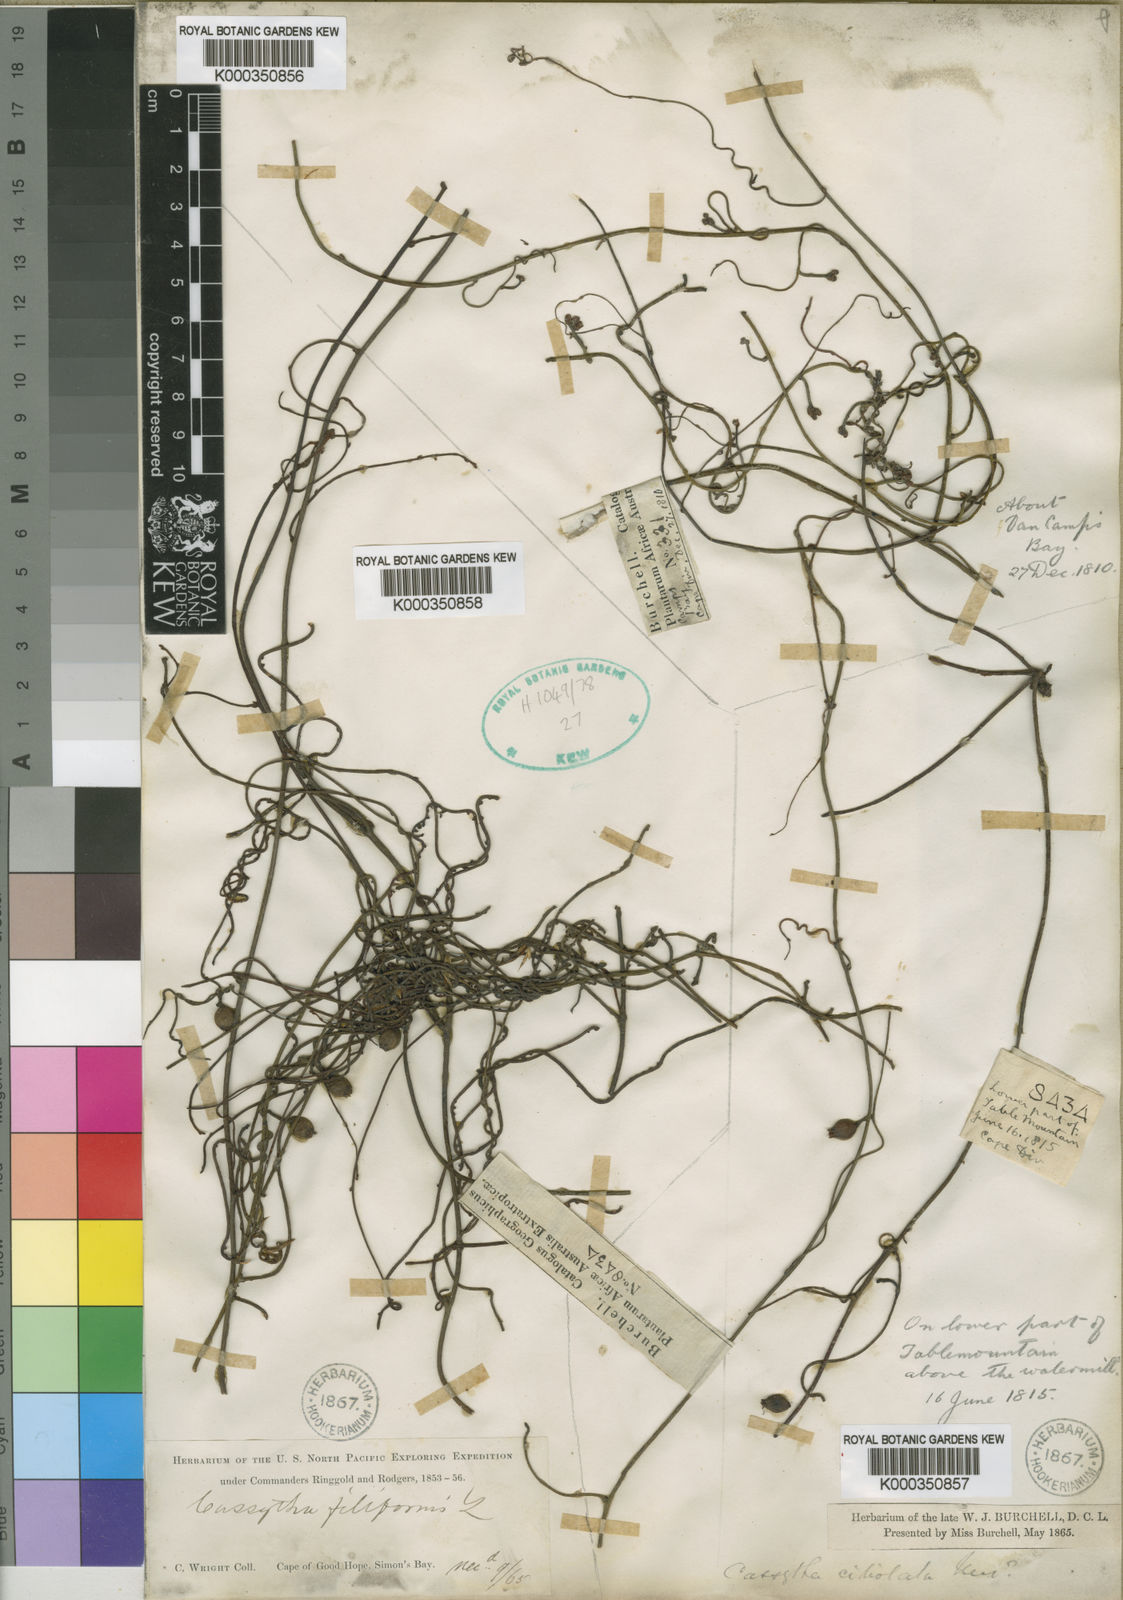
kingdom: Plantae
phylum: Tracheophyta
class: Magnoliopsida
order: Laurales
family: Lauraceae
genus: Cassytha
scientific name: Cassytha ciliolata
